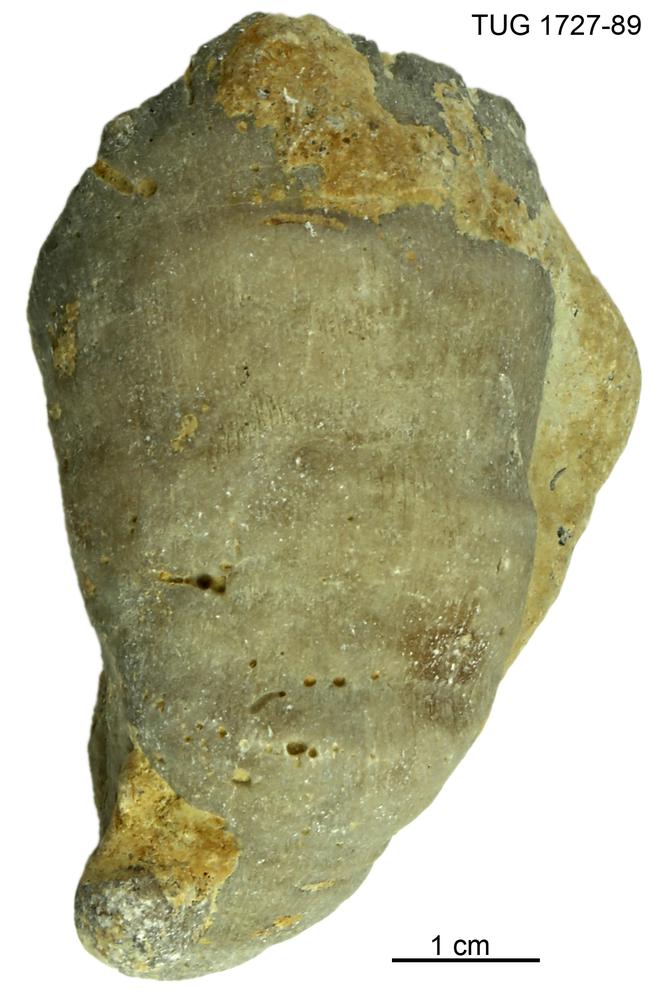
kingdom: Animalia
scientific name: Animalia
